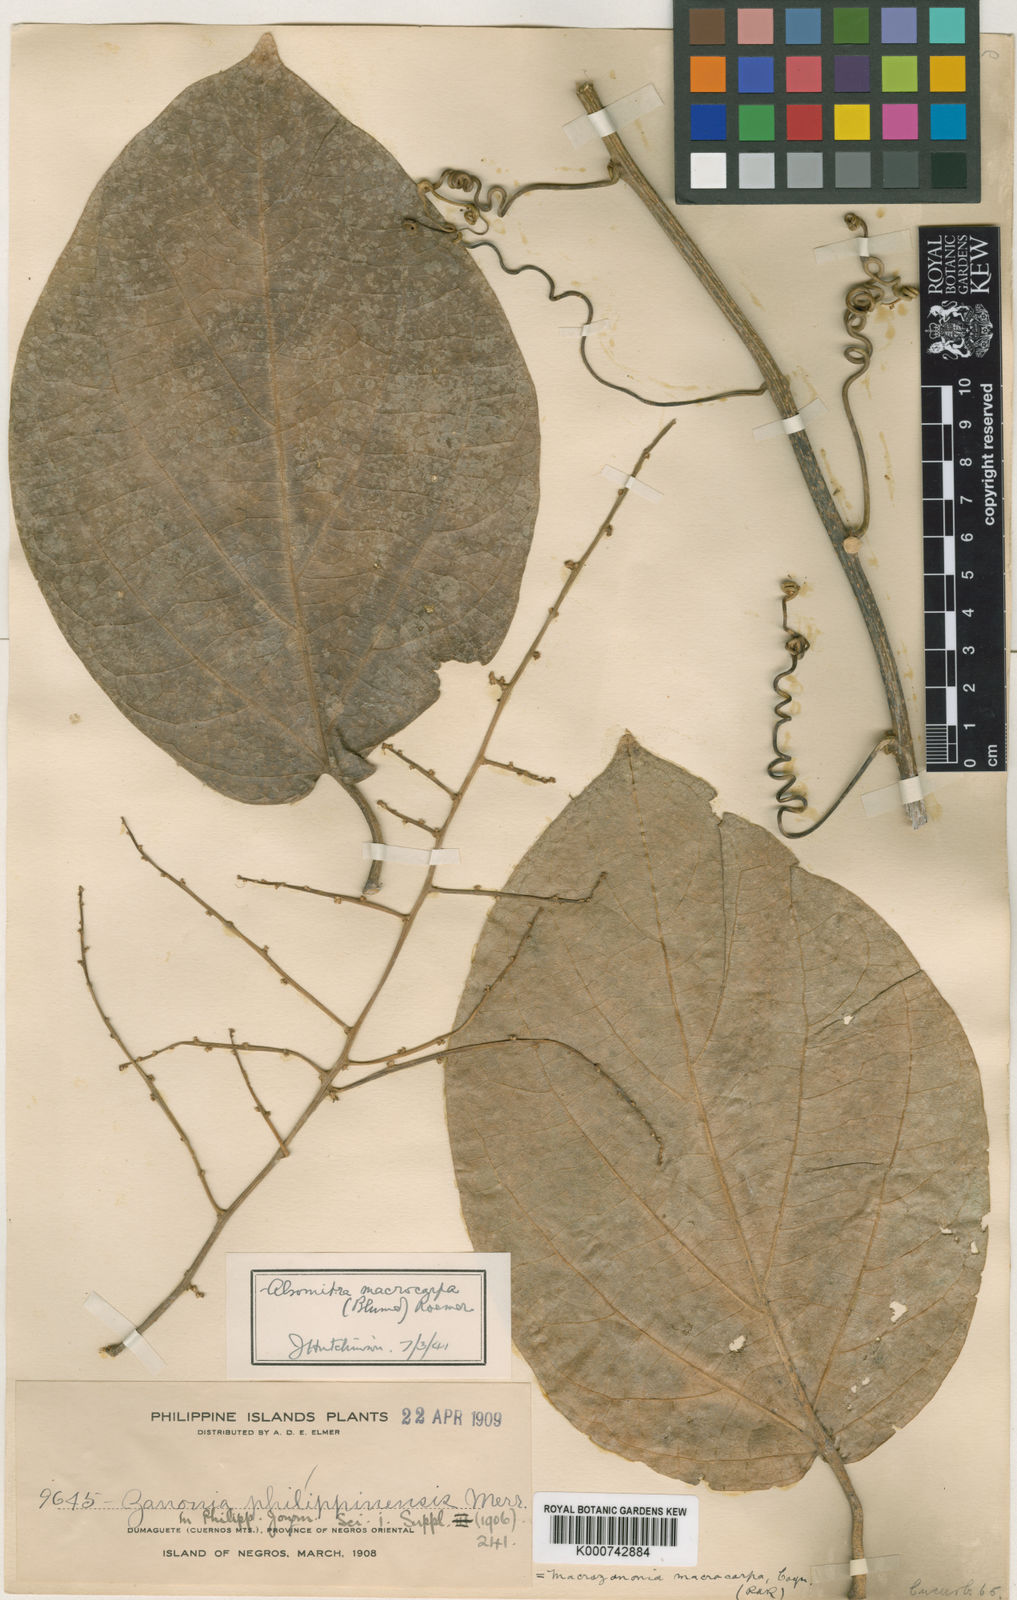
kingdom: Plantae
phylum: Tracheophyta
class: Magnoliopsida
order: Cucurbitales
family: Cucurbitaceae
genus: Alsomitra
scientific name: Alsomitra macrocarpa
